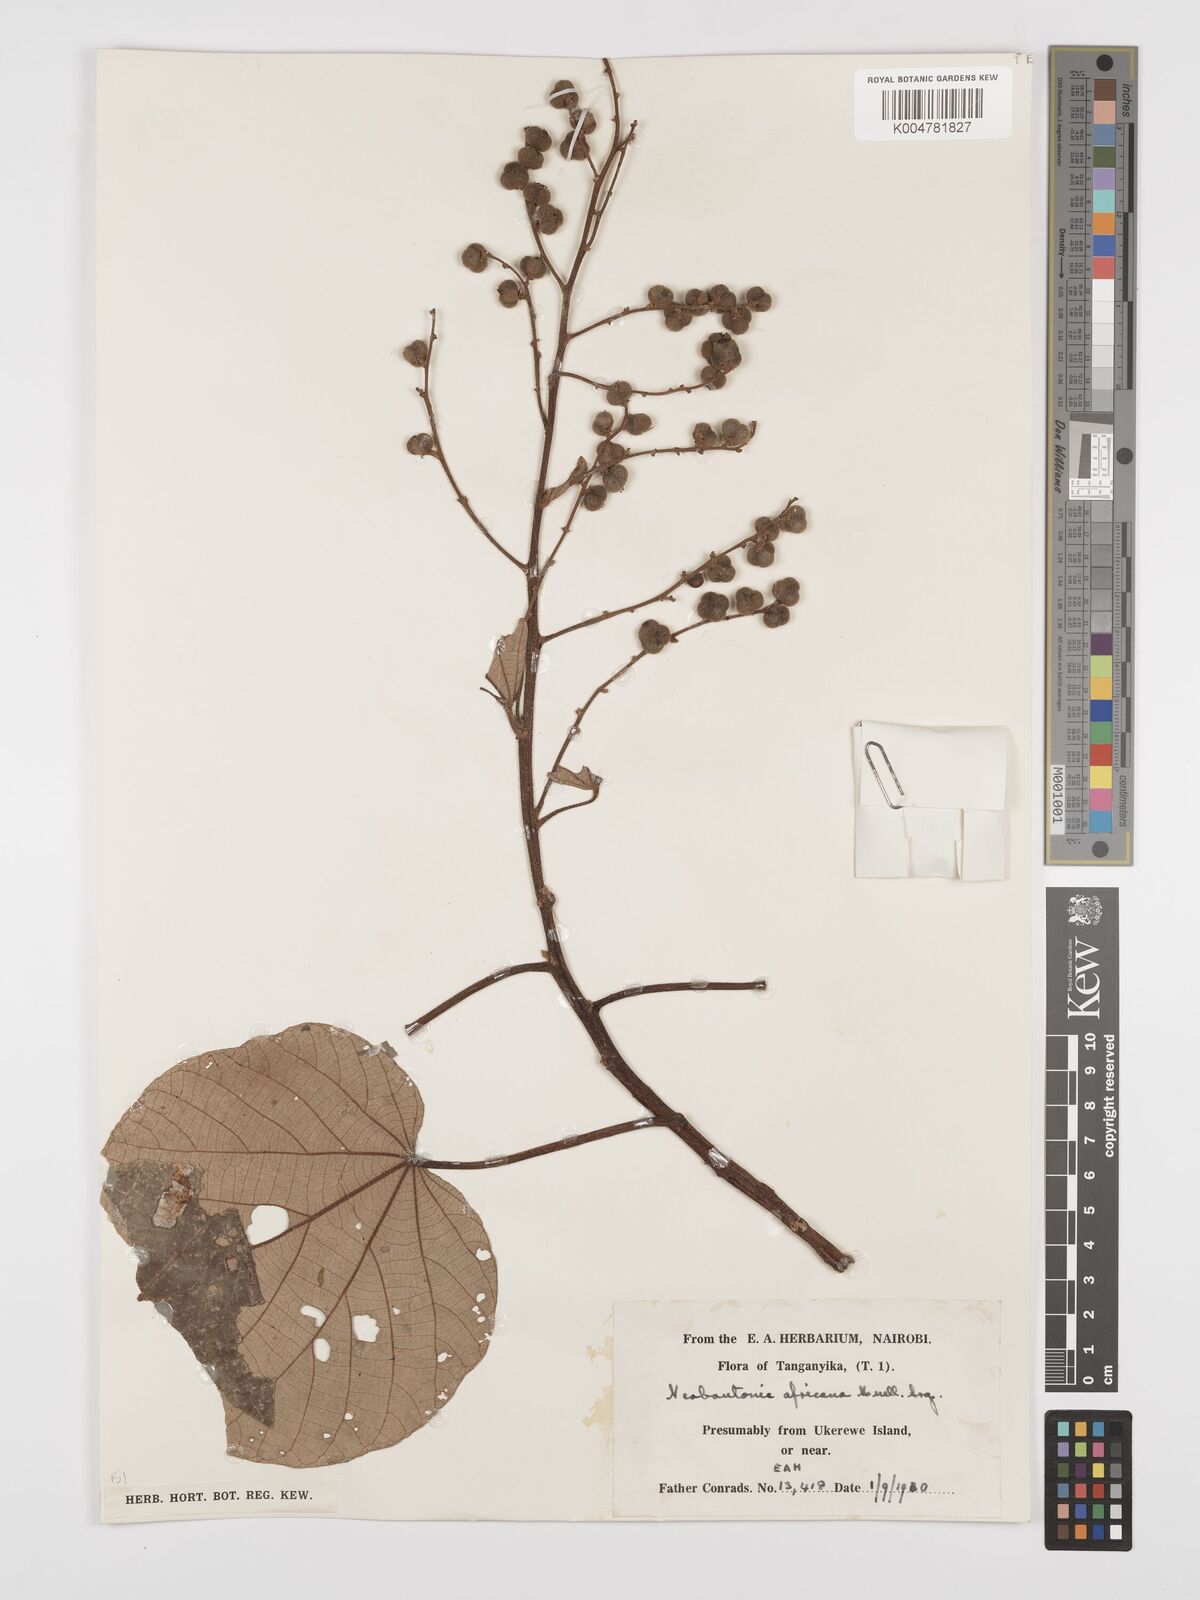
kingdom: Plantae
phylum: Tracheophyta
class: Magnoliopsida
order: Malpighiales
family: Euphorbiaceae
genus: Neoboutonia
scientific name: Neoboutonia melleri
